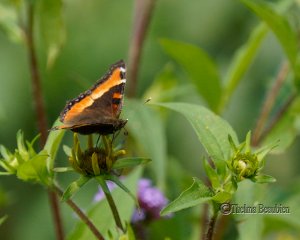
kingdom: Animalia
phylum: Arthropoda
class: Insecta
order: Lepidoptera
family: Nymphalidae
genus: Aglais
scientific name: Aglais milberti
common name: Milbert's Tortoiseshell
